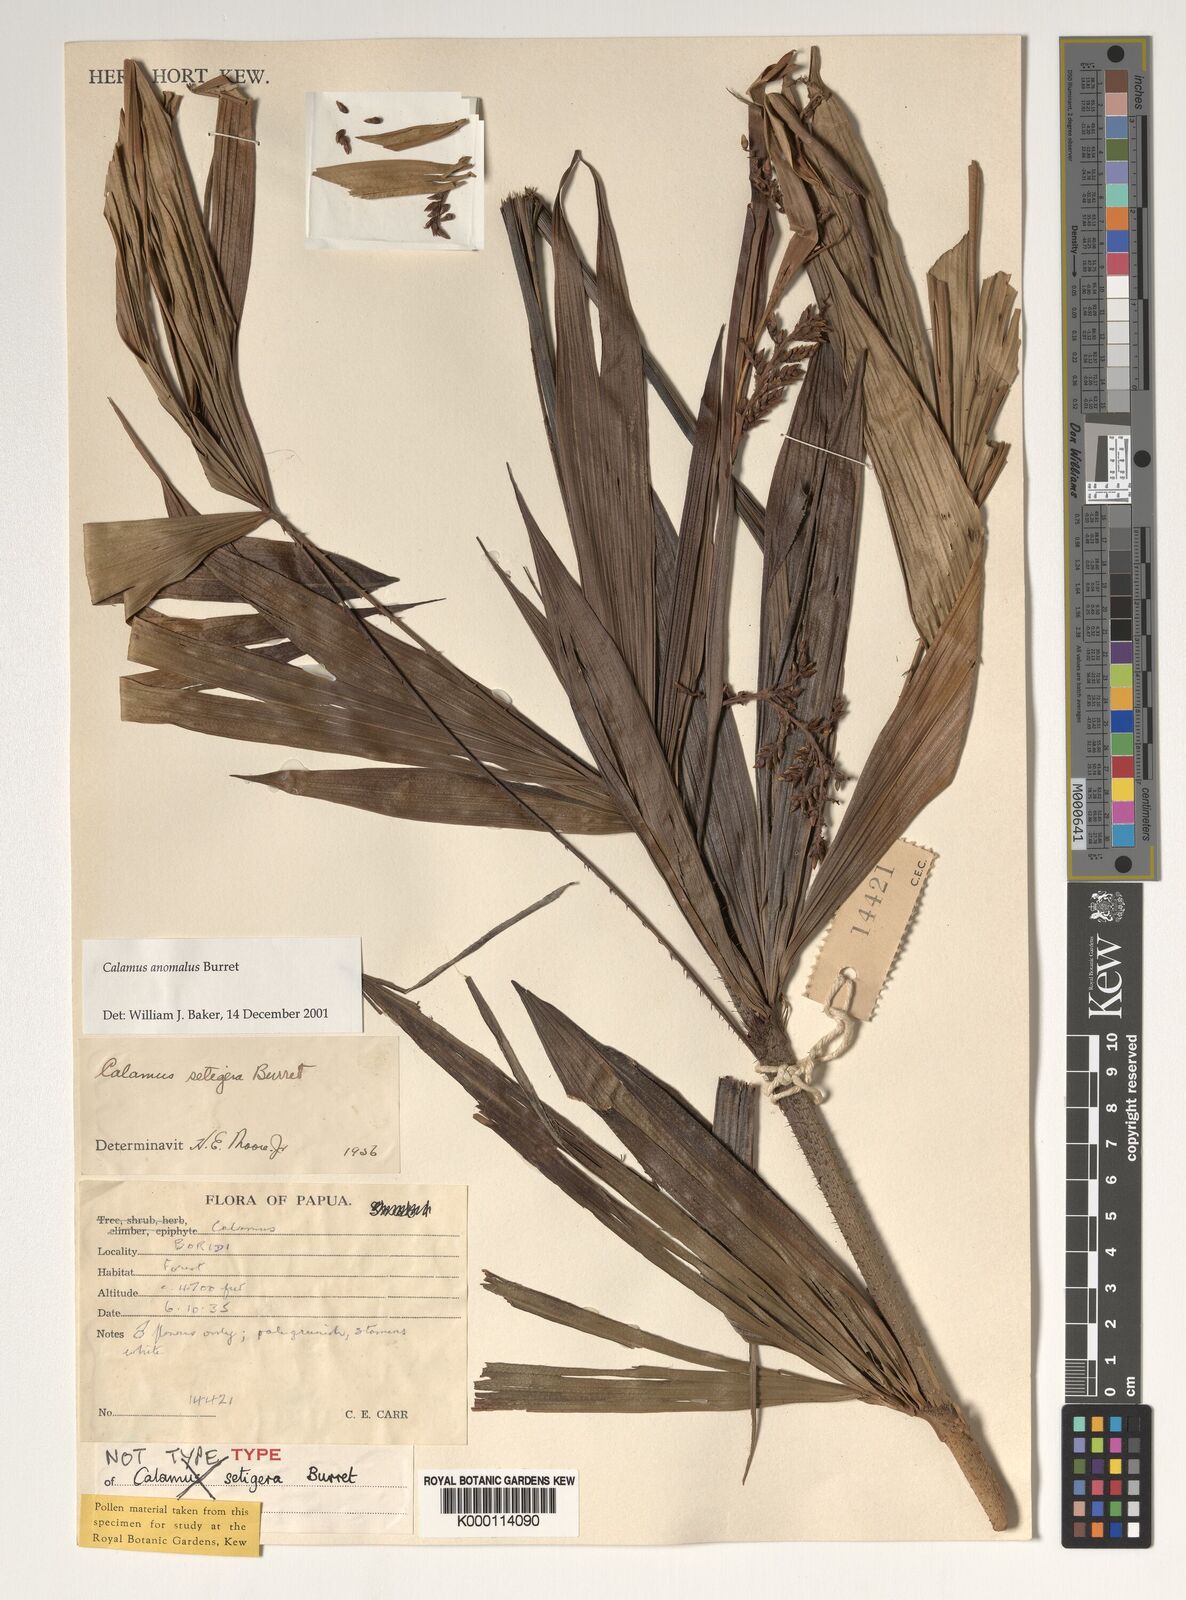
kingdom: Plantae
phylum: Tracheophyta
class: Liliopsida
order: Arecales
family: Arecaceae
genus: Calamus
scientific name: Calamus anomalus
